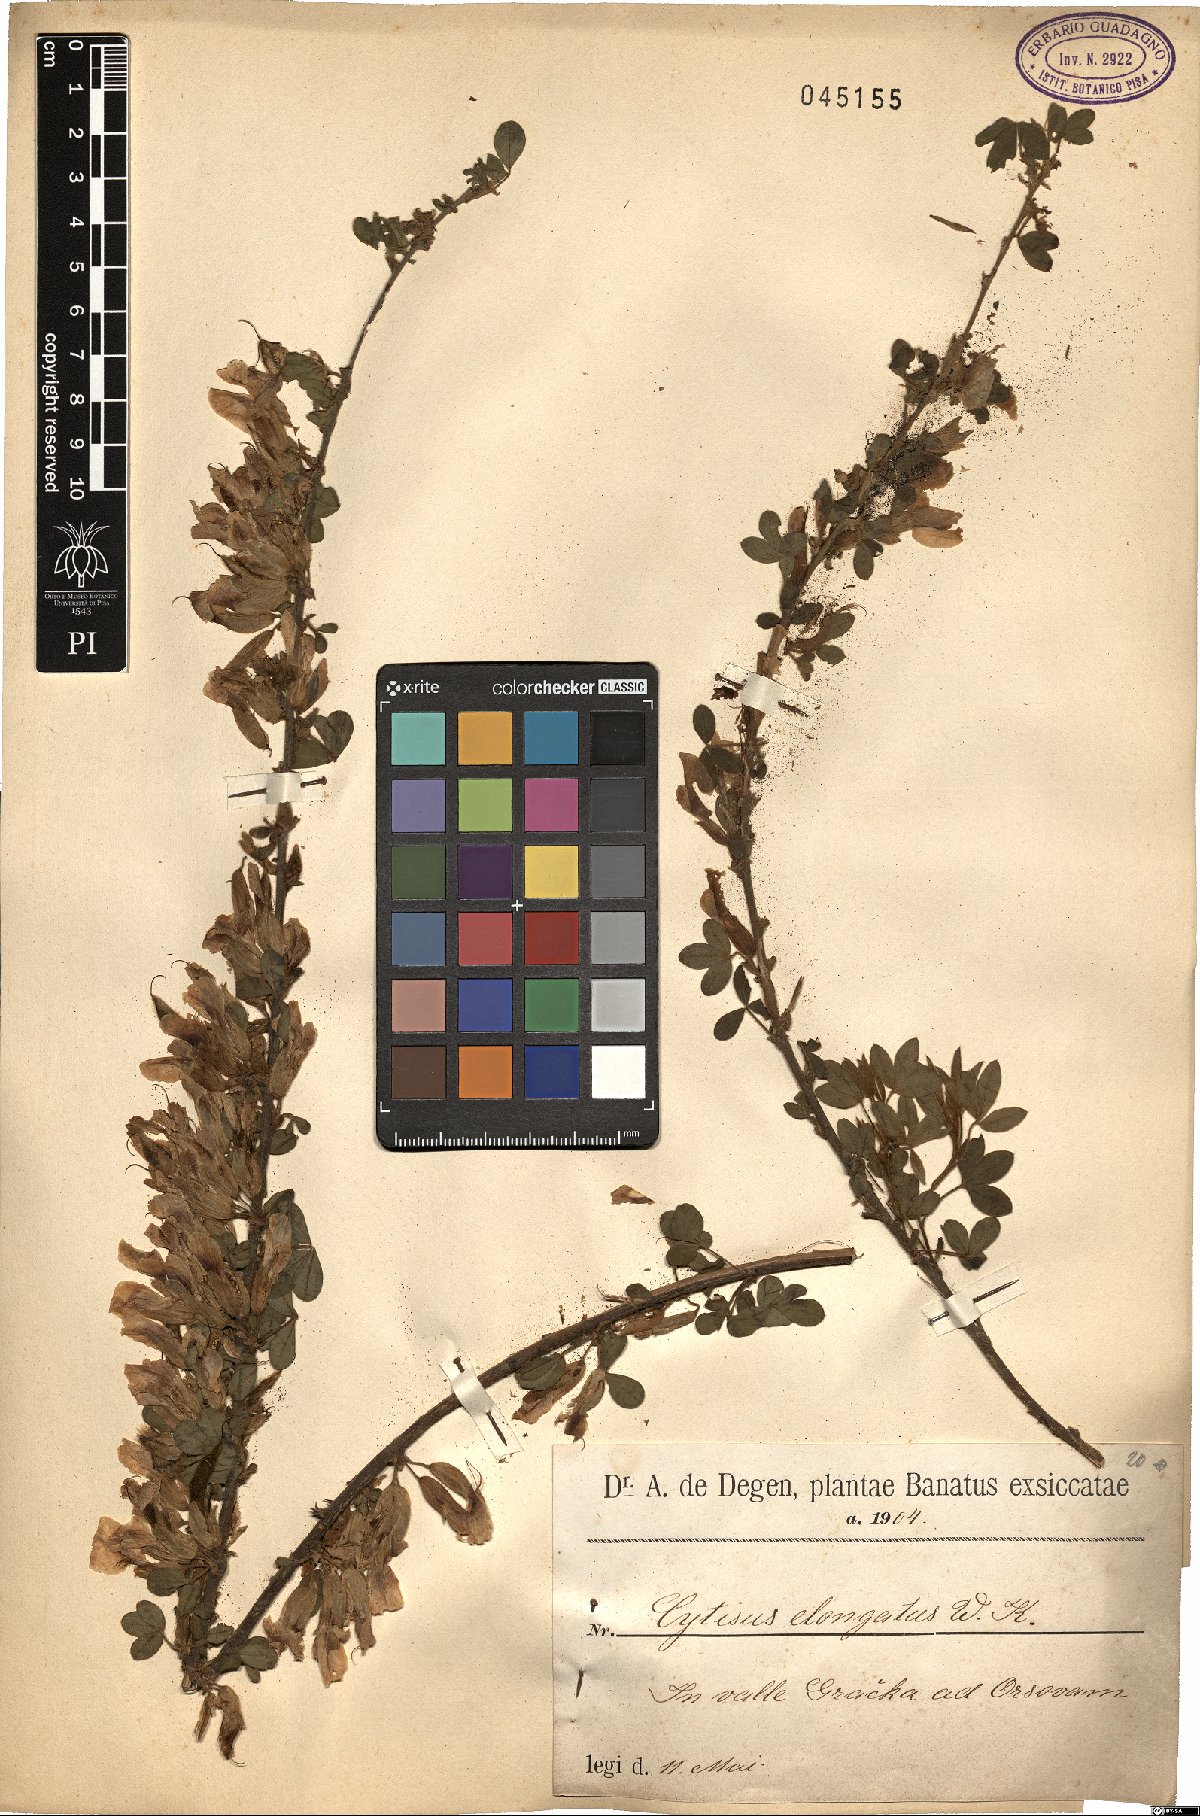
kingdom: Plantae
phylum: Tracheophyta
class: Magnoliopsida
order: Fabales
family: Fabaceae
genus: Chamaecytisus
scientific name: Chamaecytisus elongatus
